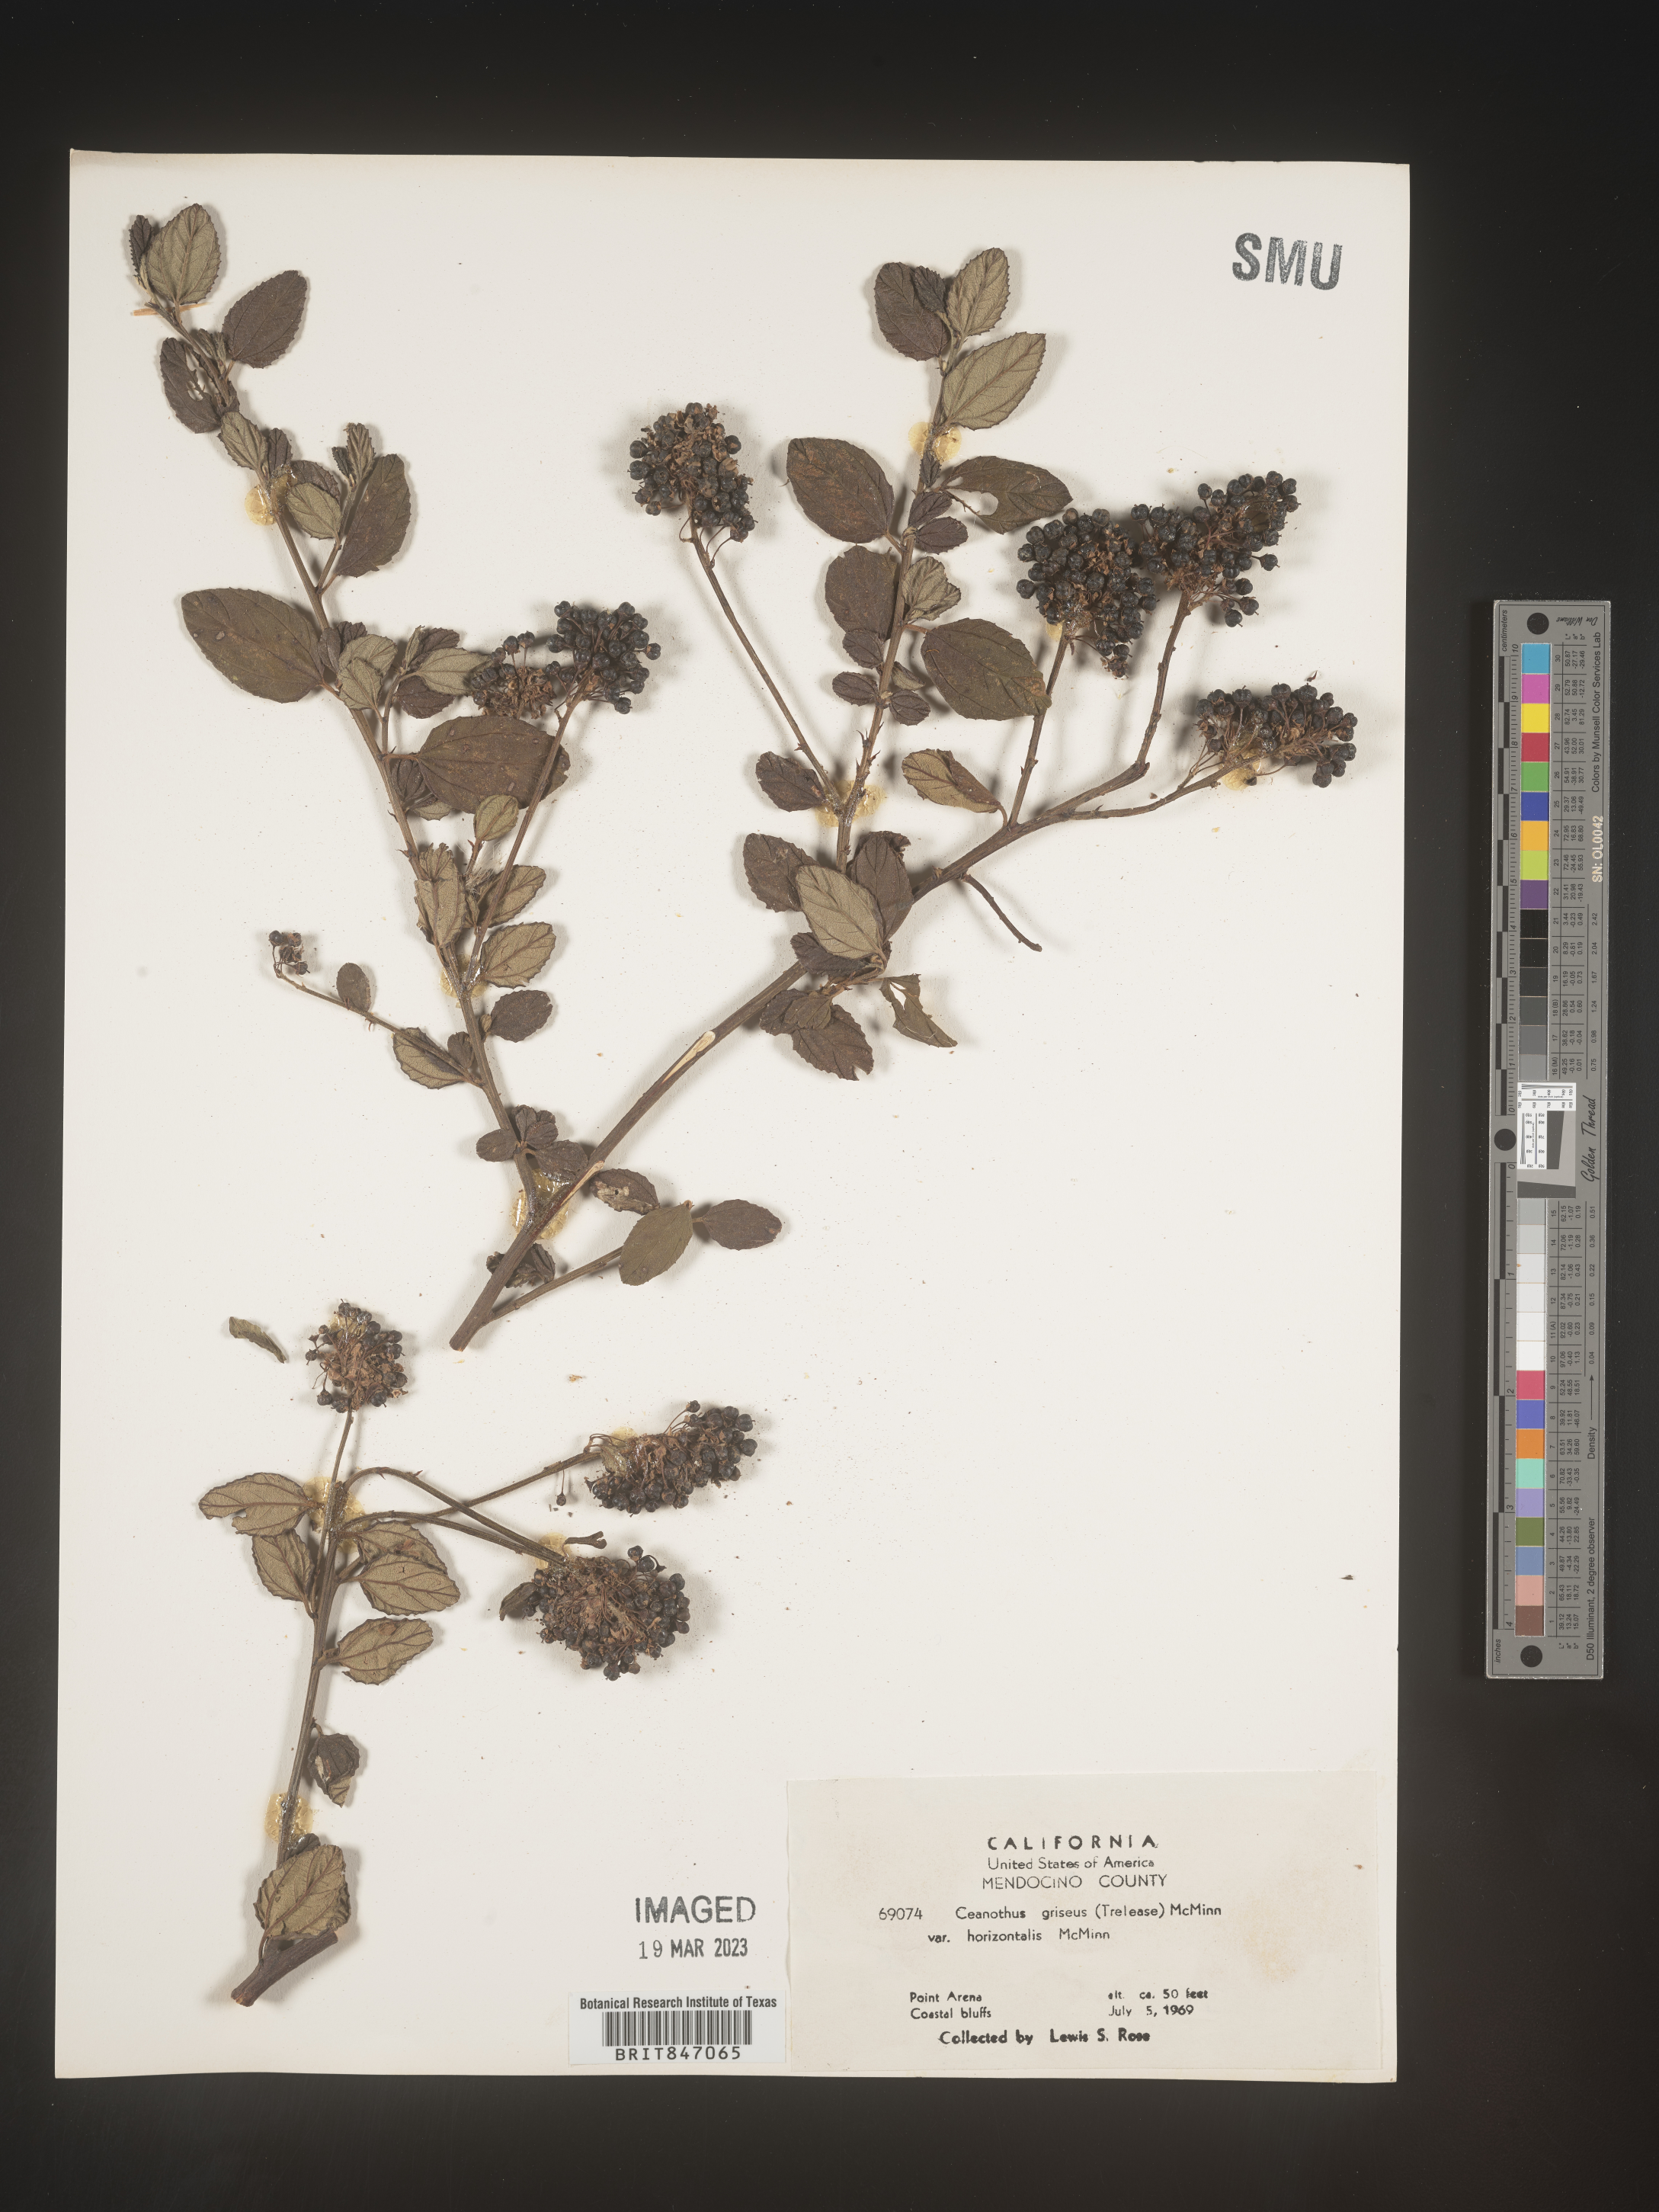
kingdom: Plantae
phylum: Tracheophyta
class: Magnoliopsida
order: Rosales
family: Rhamnaceae
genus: Ceanothus
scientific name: Ceanothus
